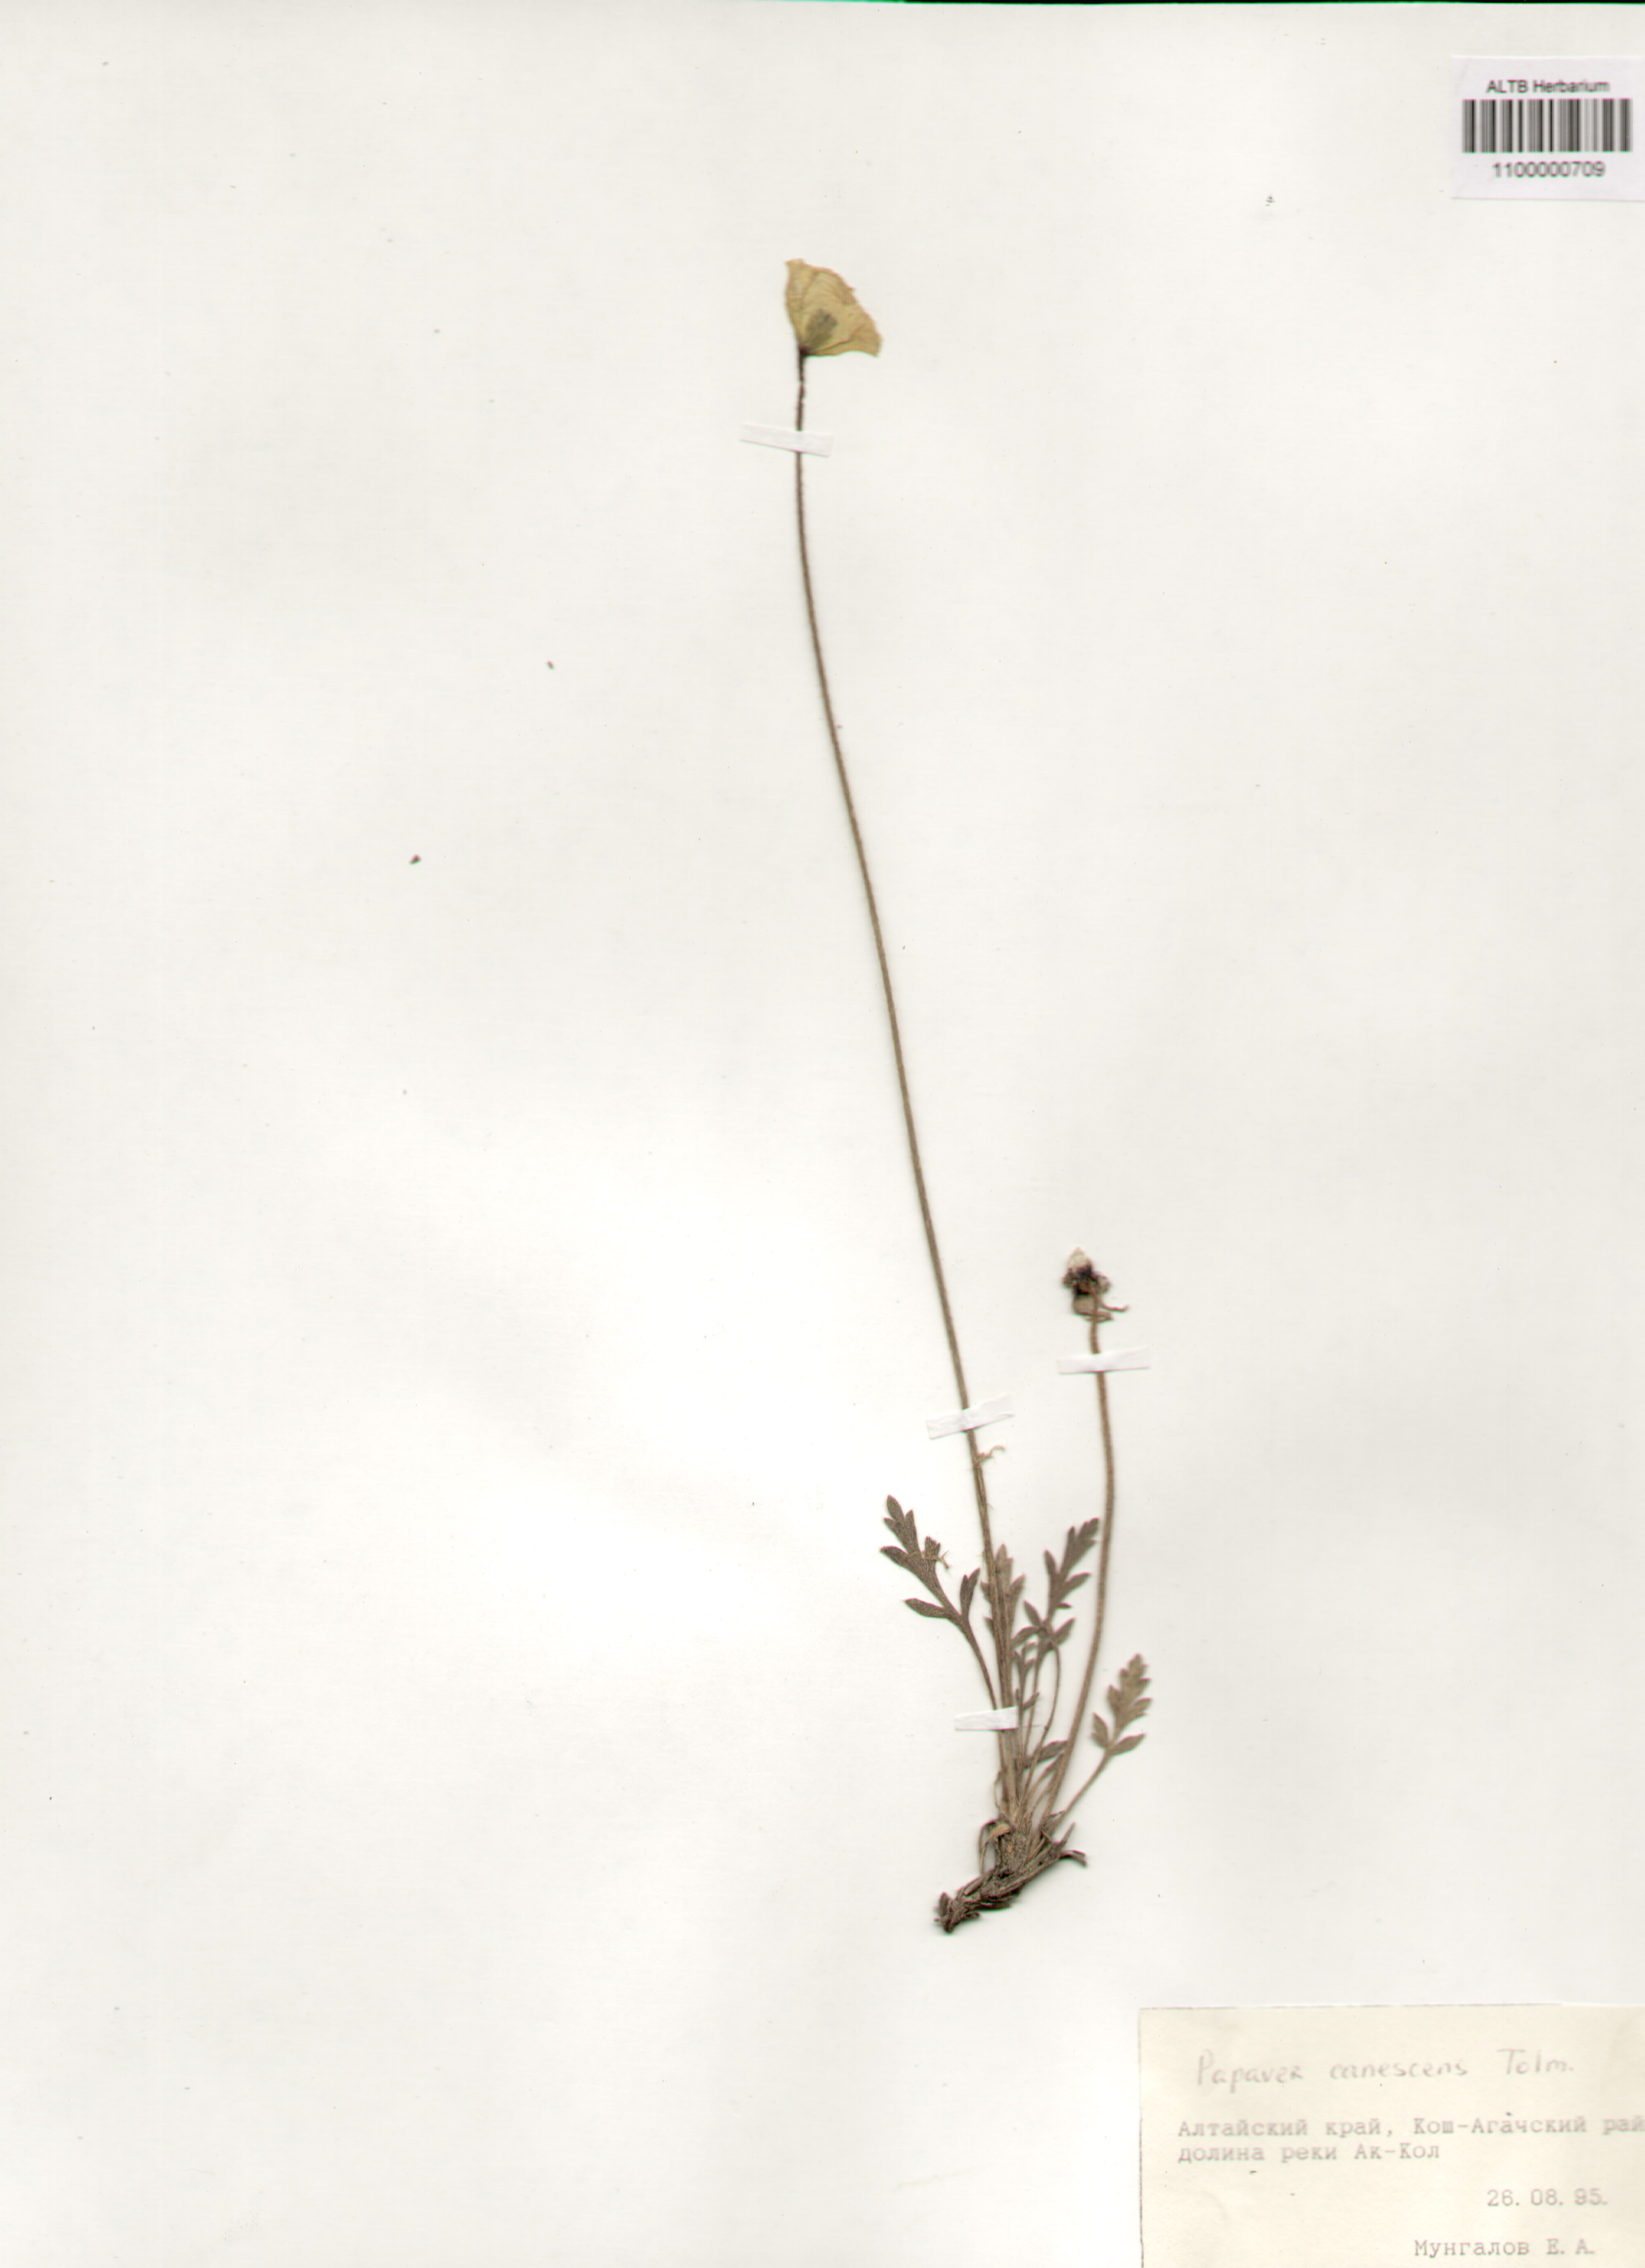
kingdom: Plantae
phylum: Tracheophyta
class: Magnoliopsida
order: Ranunculales
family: Papaveraceae
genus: Papaver
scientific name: Papaver canescens
